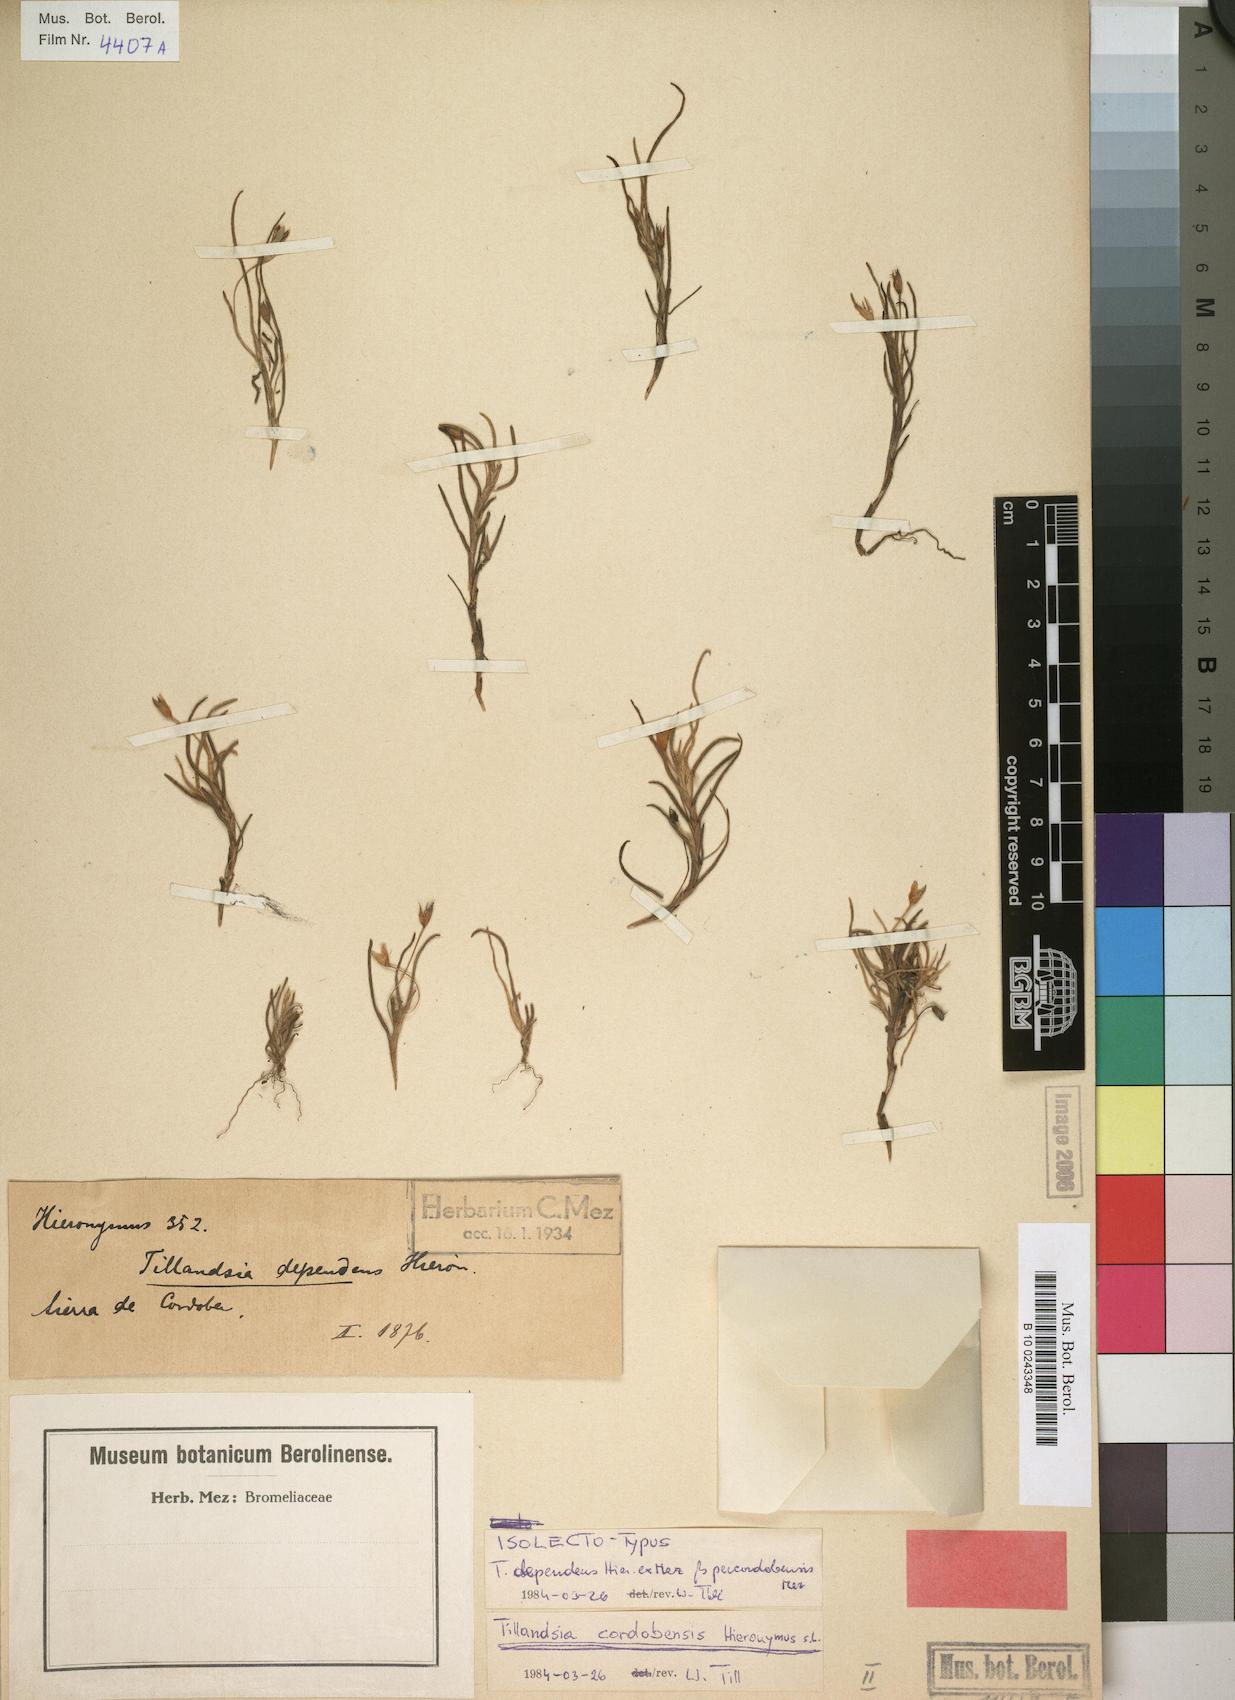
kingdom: Plantae
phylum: Tracheophyta
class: Liliopsida
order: Poales
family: Bromeliaceae
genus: Tillandsia
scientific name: Tillandsia virescens
